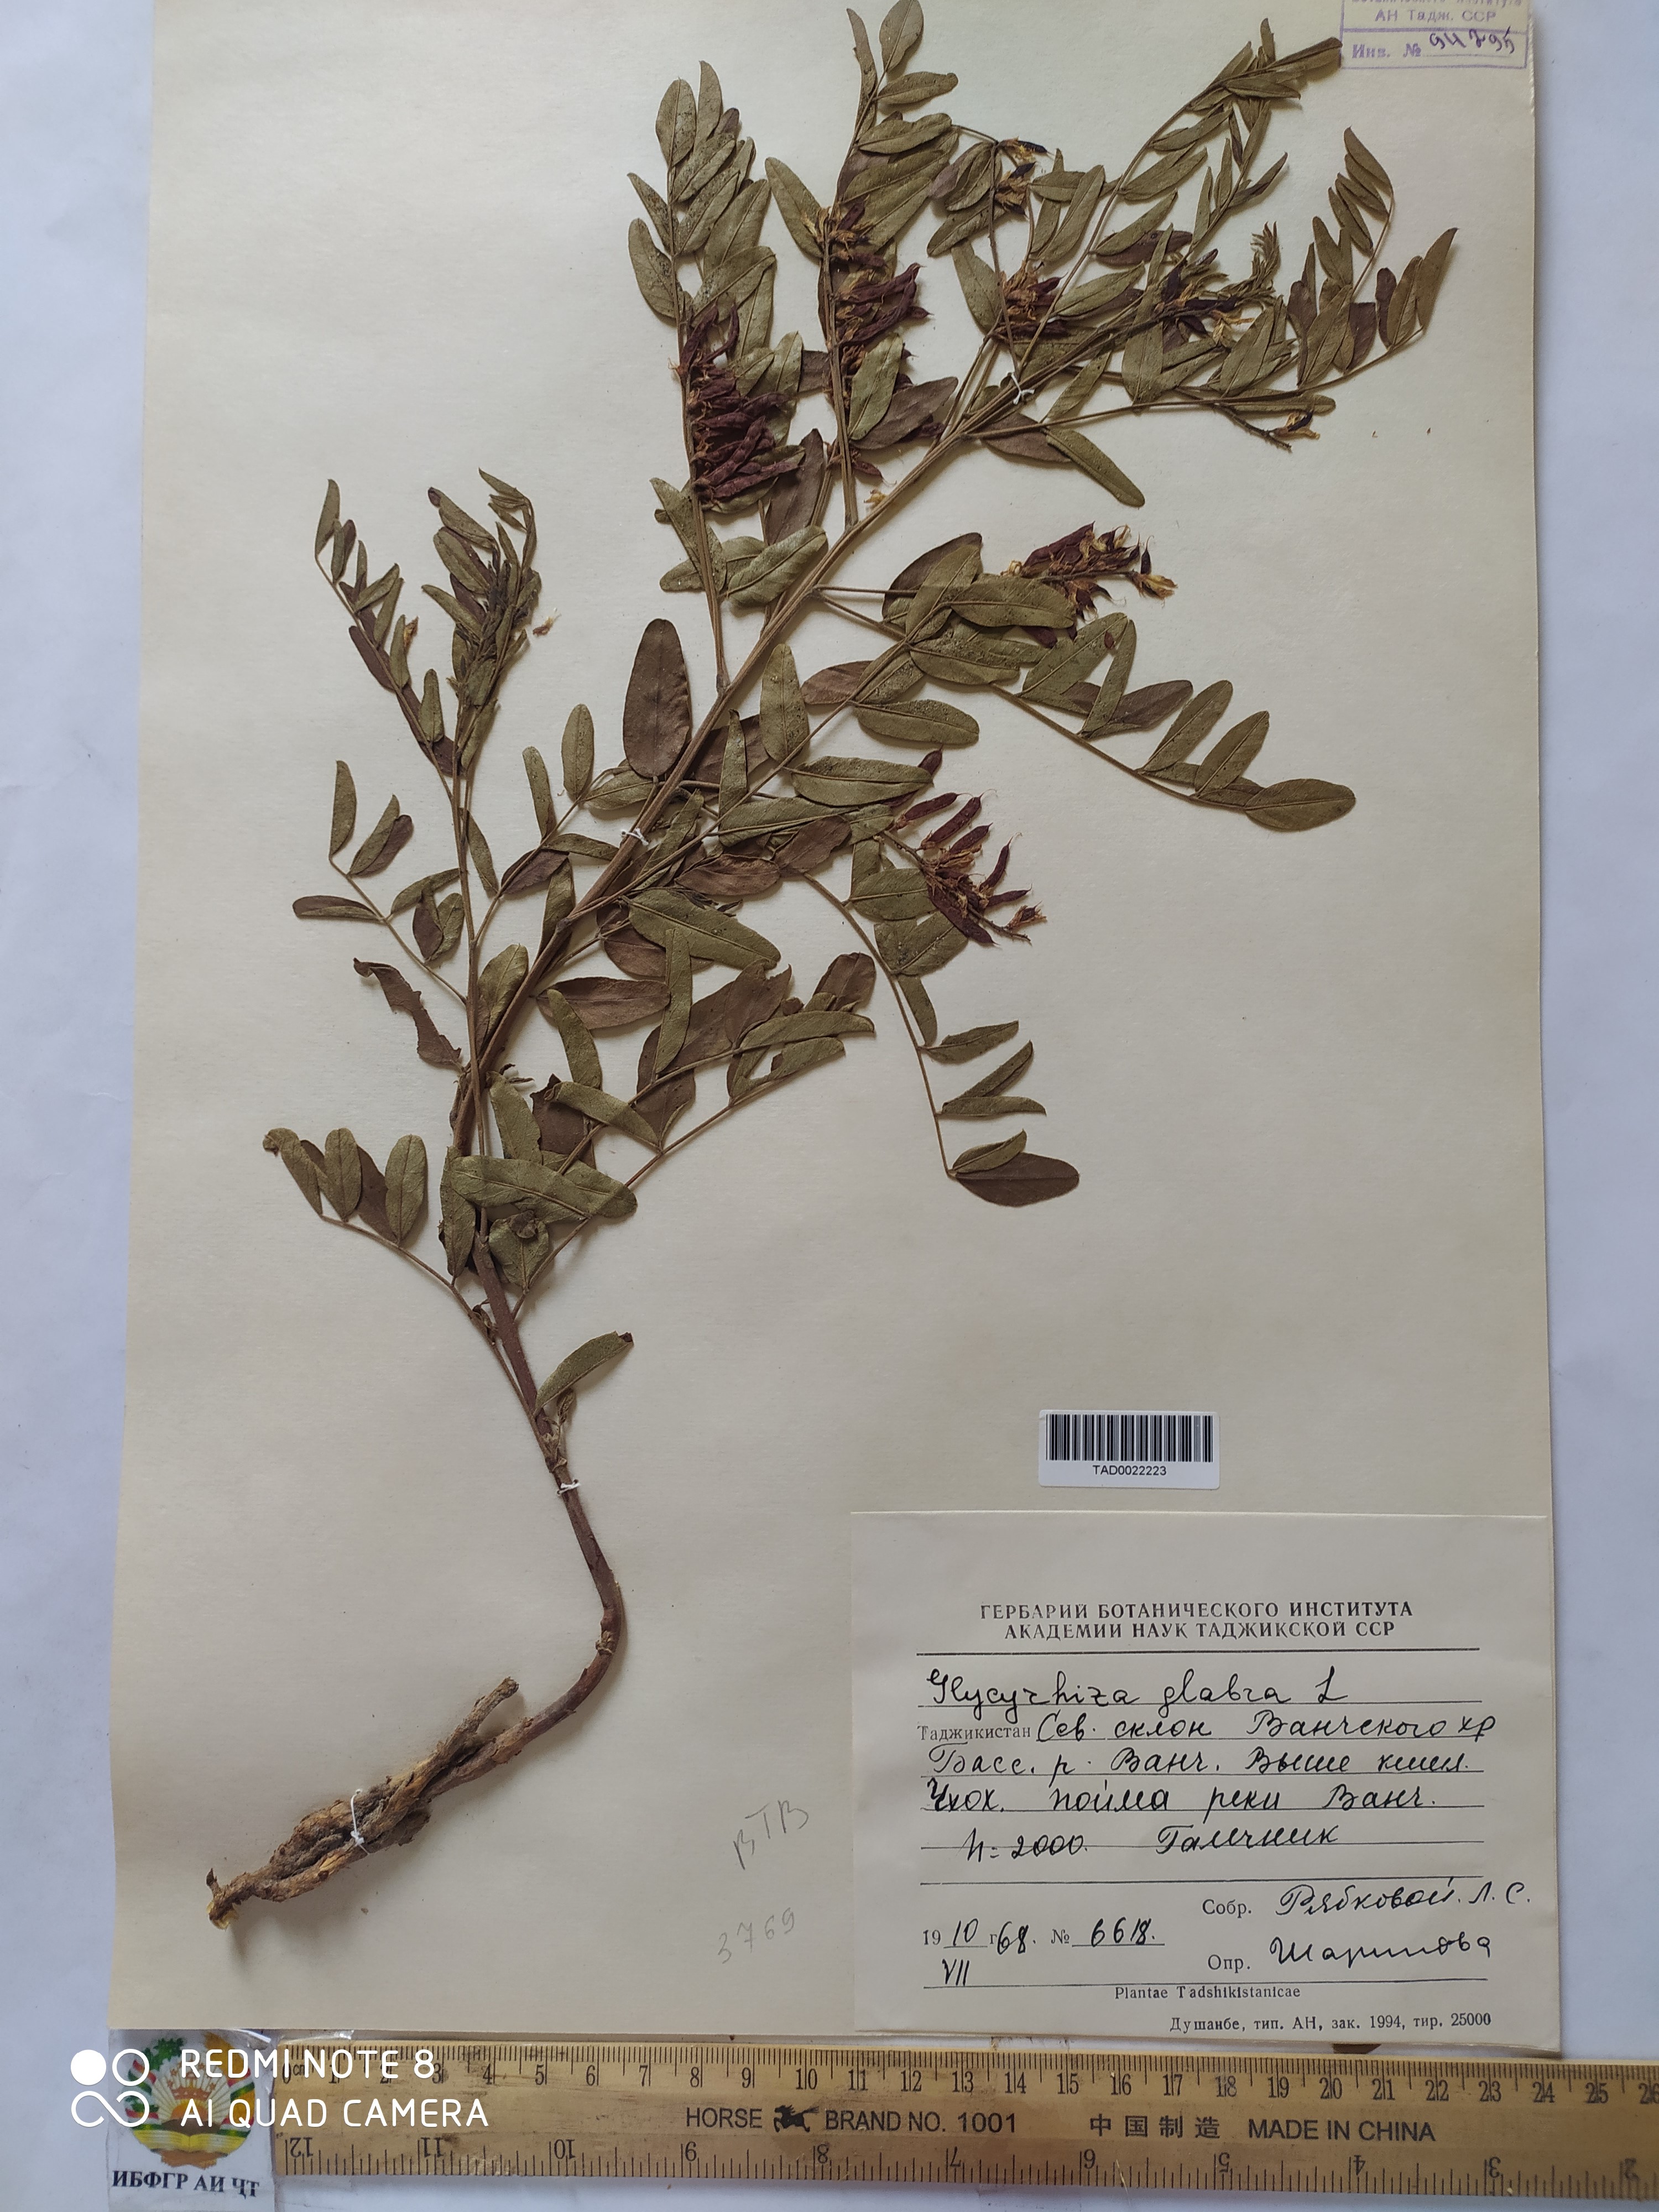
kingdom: Plantae
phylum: Tracheophyta
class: Magnoliopsida
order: Fabales
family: Fabaceae
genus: Glycyrrhiza
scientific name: Glycyrrhiza glabra
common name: Liquorice
